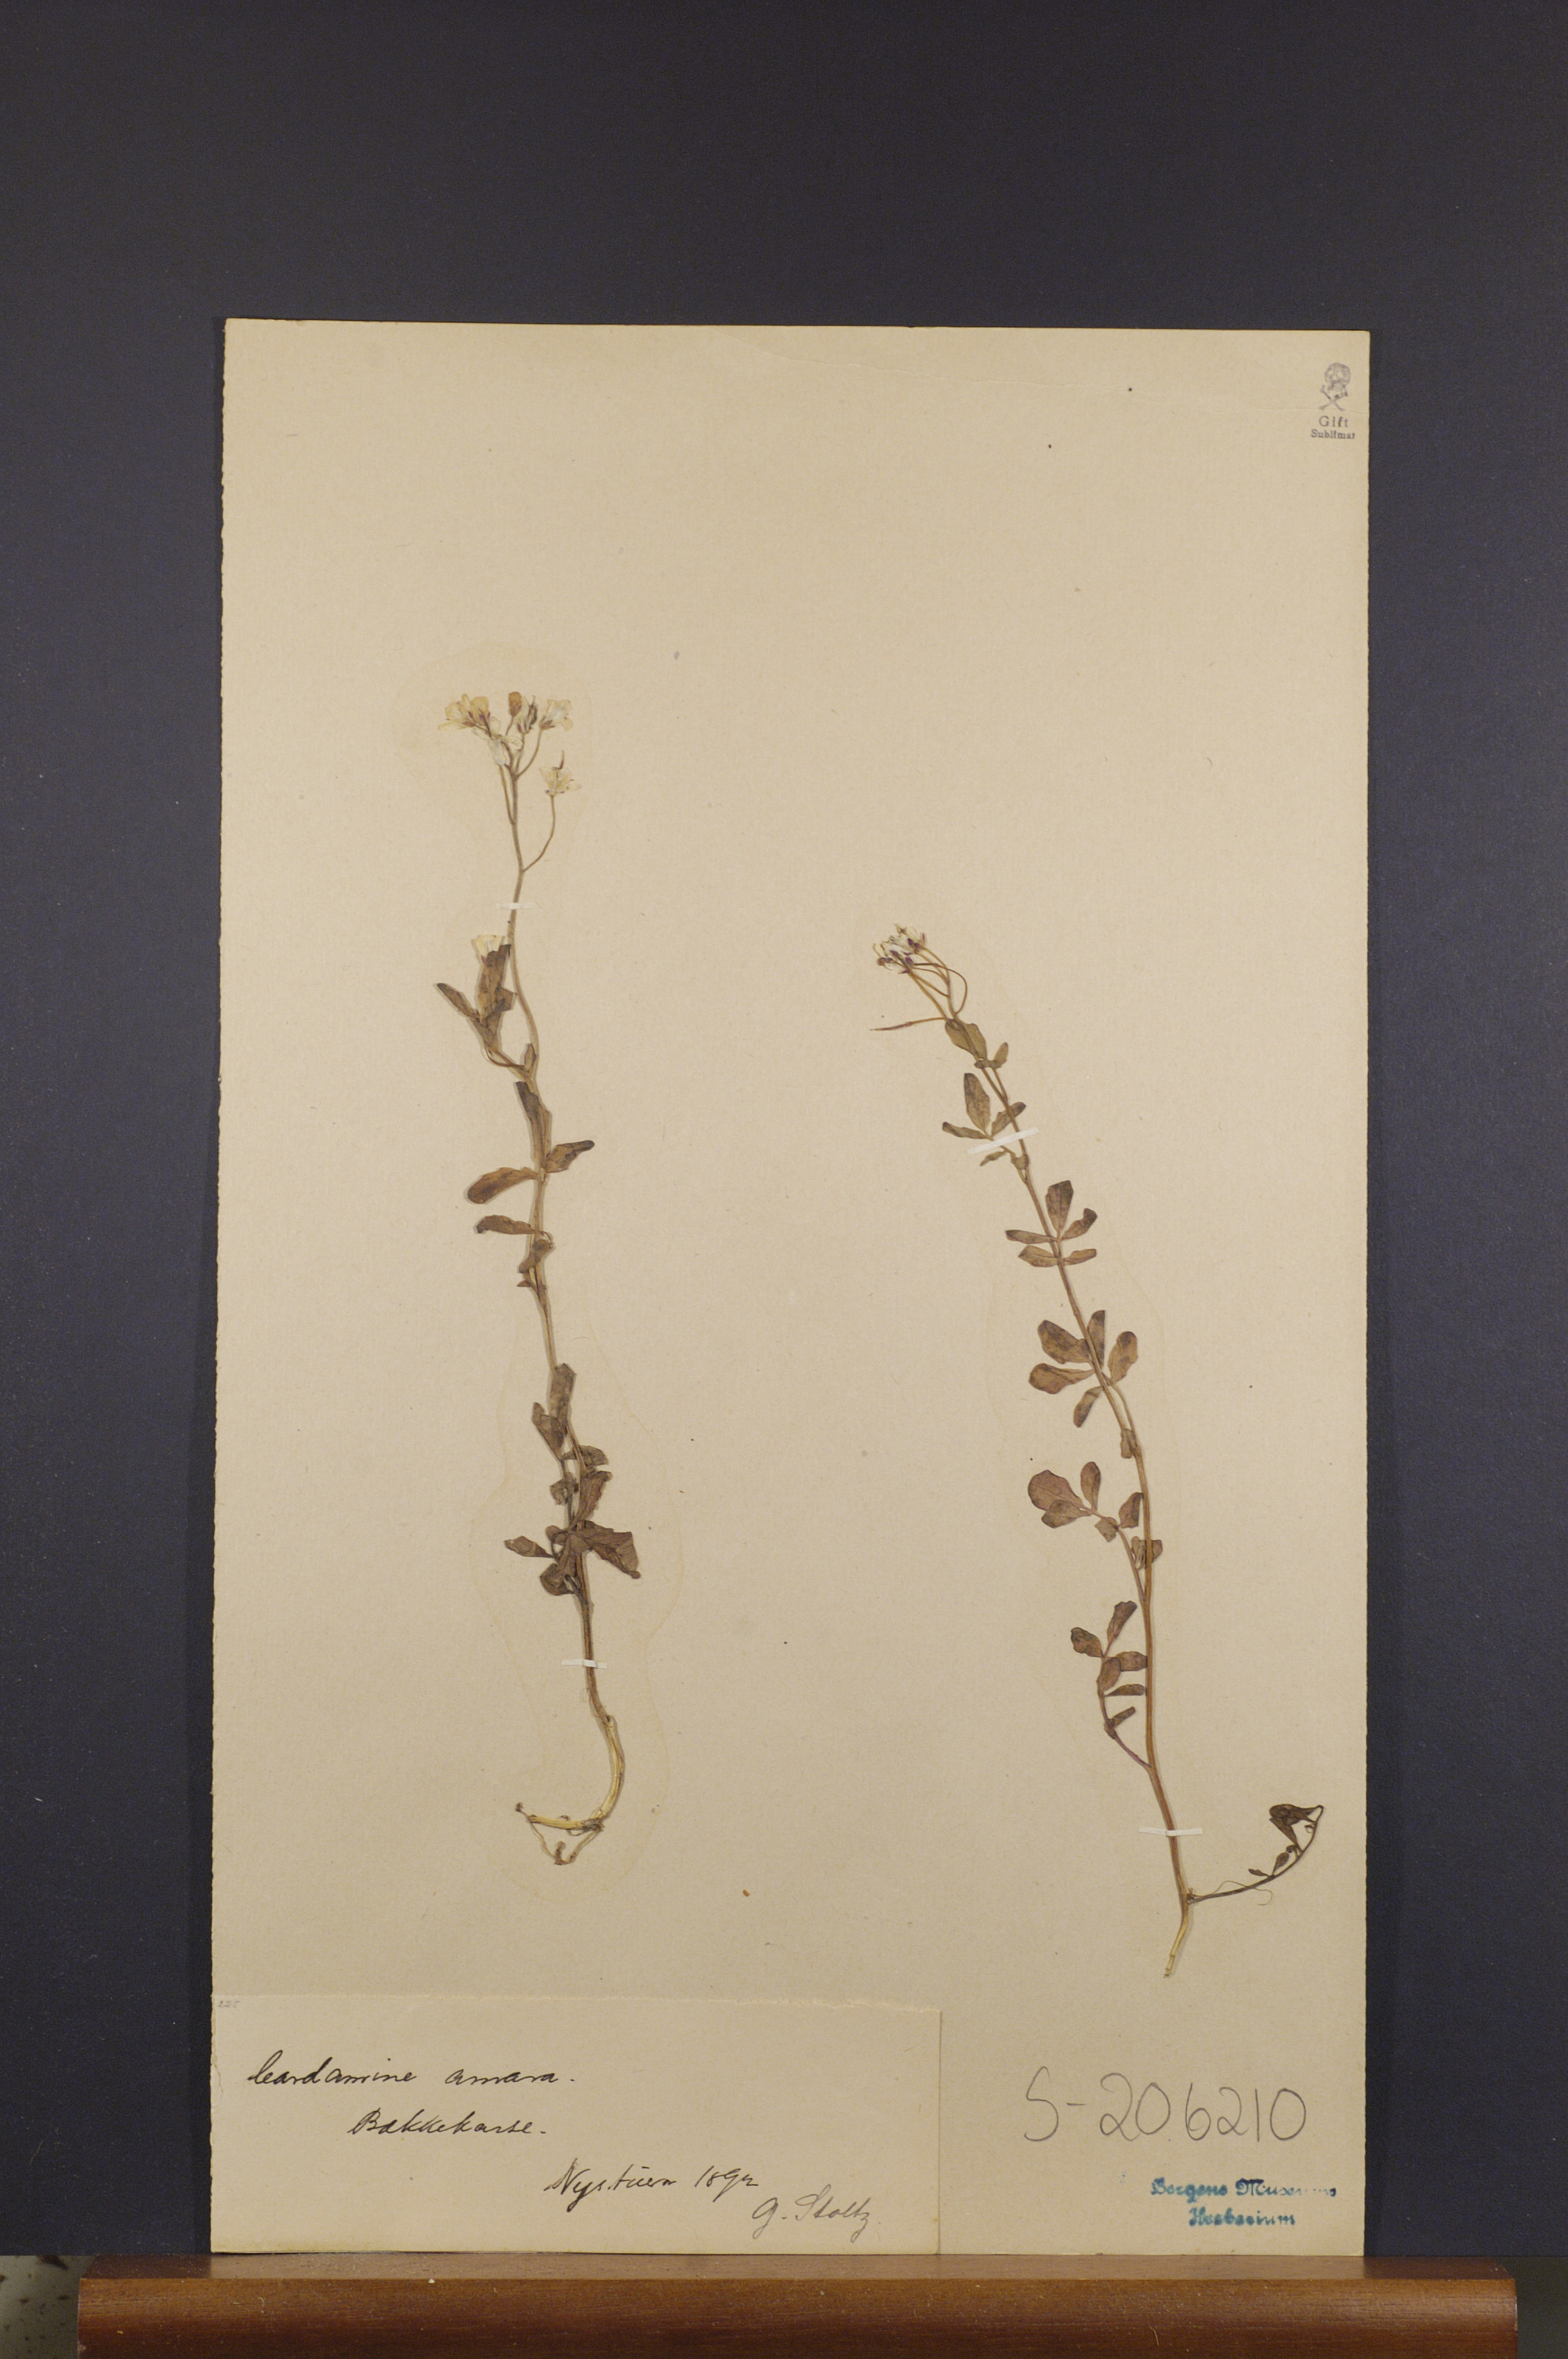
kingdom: Plantae
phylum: Tracheophyta
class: Magnoliopsida
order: Brassicales
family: Brassicaceae
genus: Cardamine
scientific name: Cardamine amara
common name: Large bitter-cress
